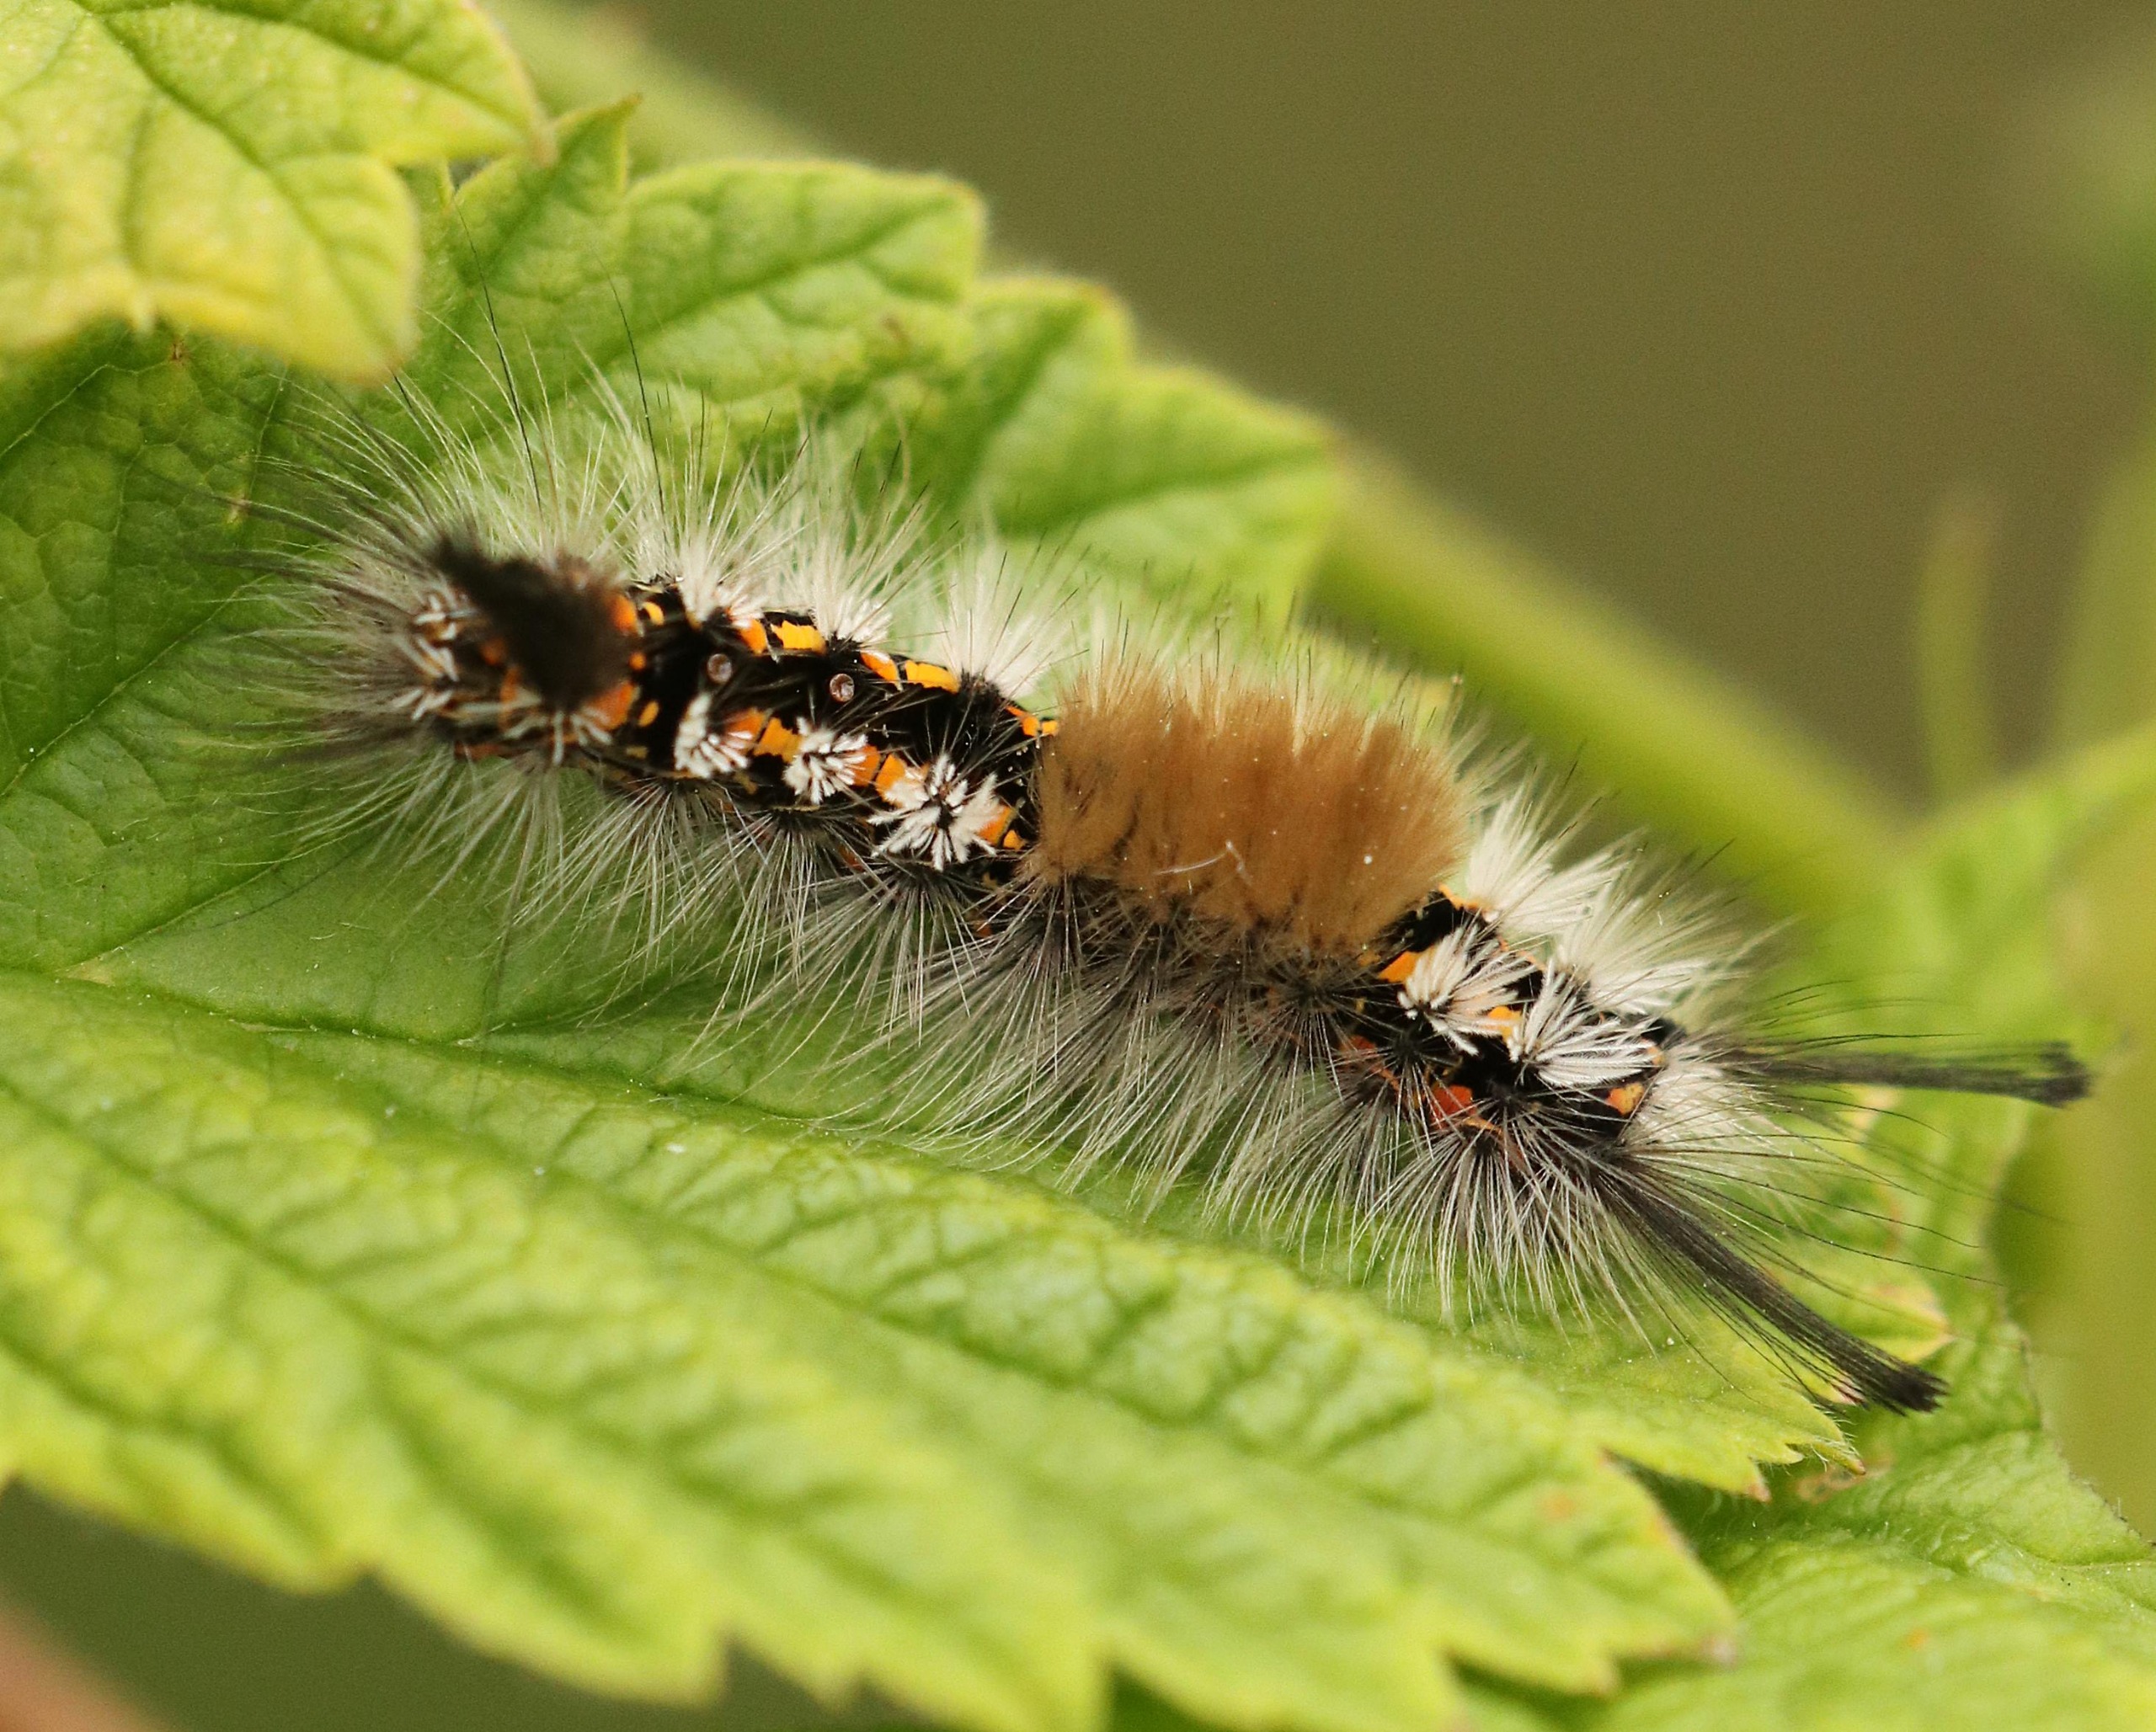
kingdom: Animalia
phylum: Arthropoda
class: Insecta
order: Lepidoptera
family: Erebidae
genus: Orgyia
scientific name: Orgyia recens
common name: Pragtpenselspinder
